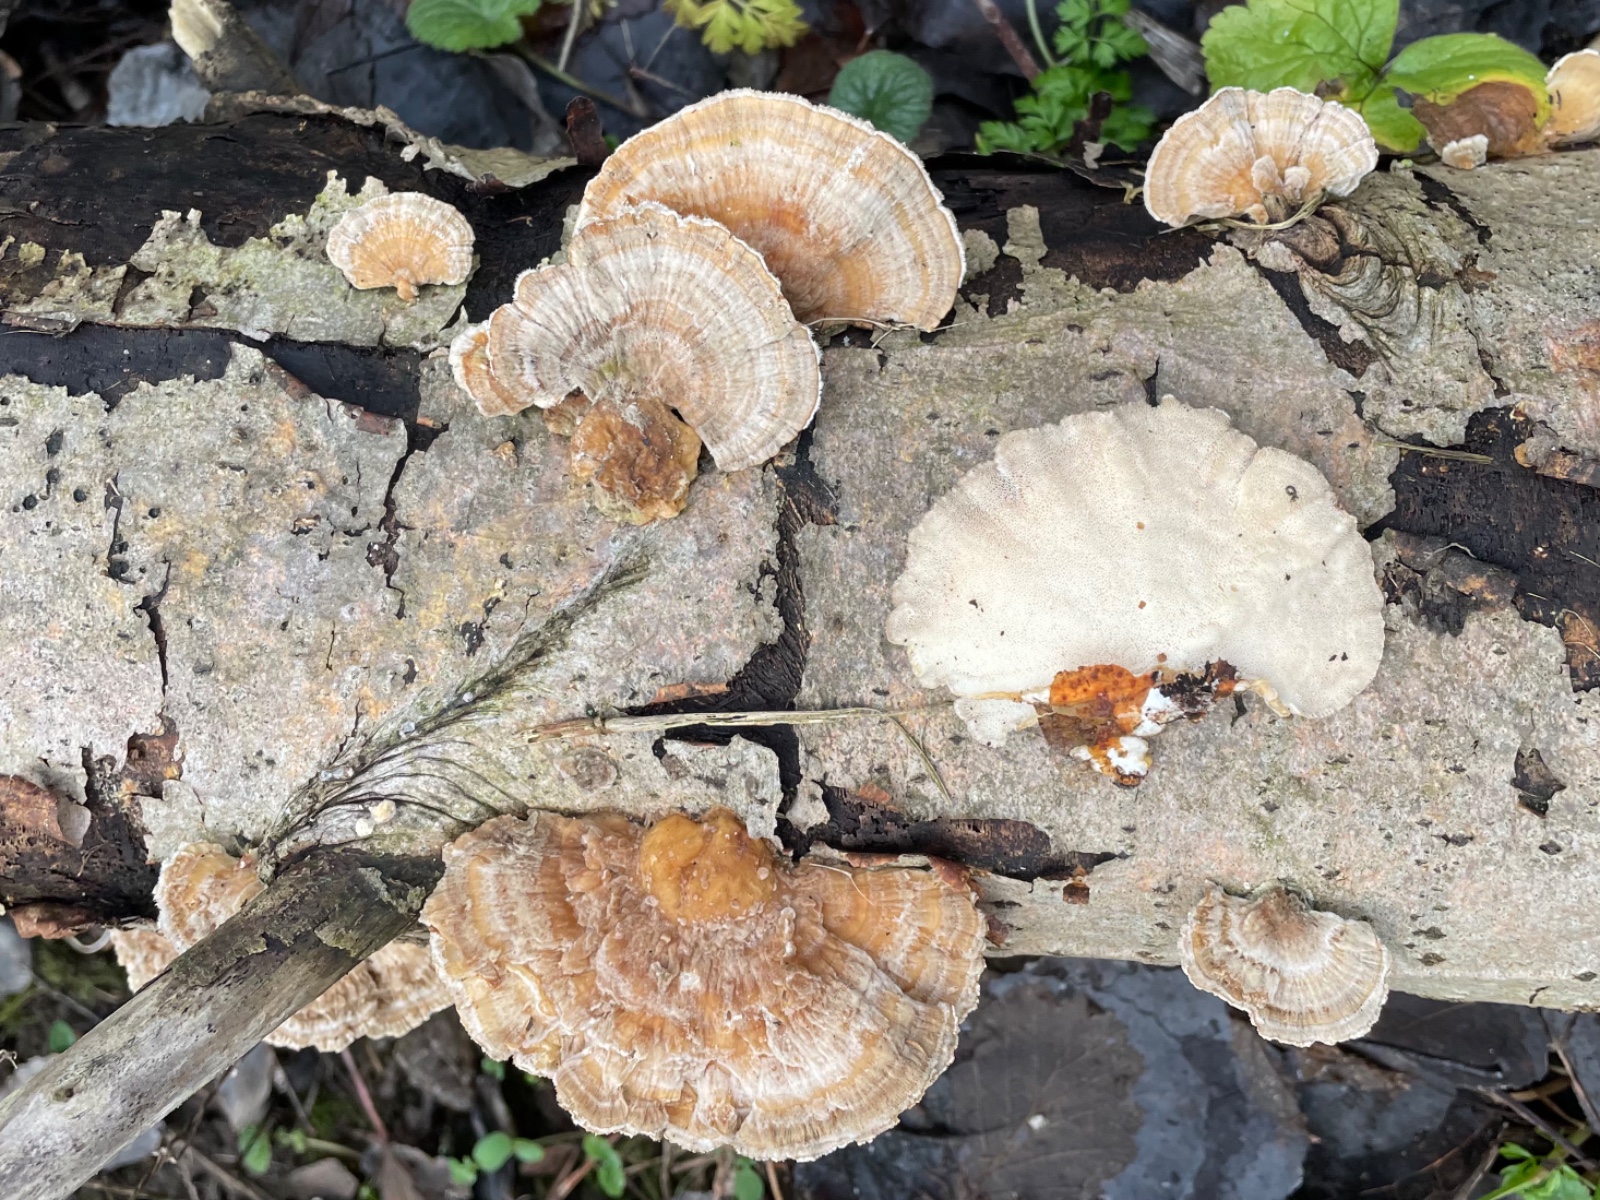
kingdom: Fungi
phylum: Basidiomycota
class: Agaricomycetes
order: Polyporales
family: Polyporaceae
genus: Trametes
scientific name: Trametes ochracea
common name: bæltet læderporesvamp
